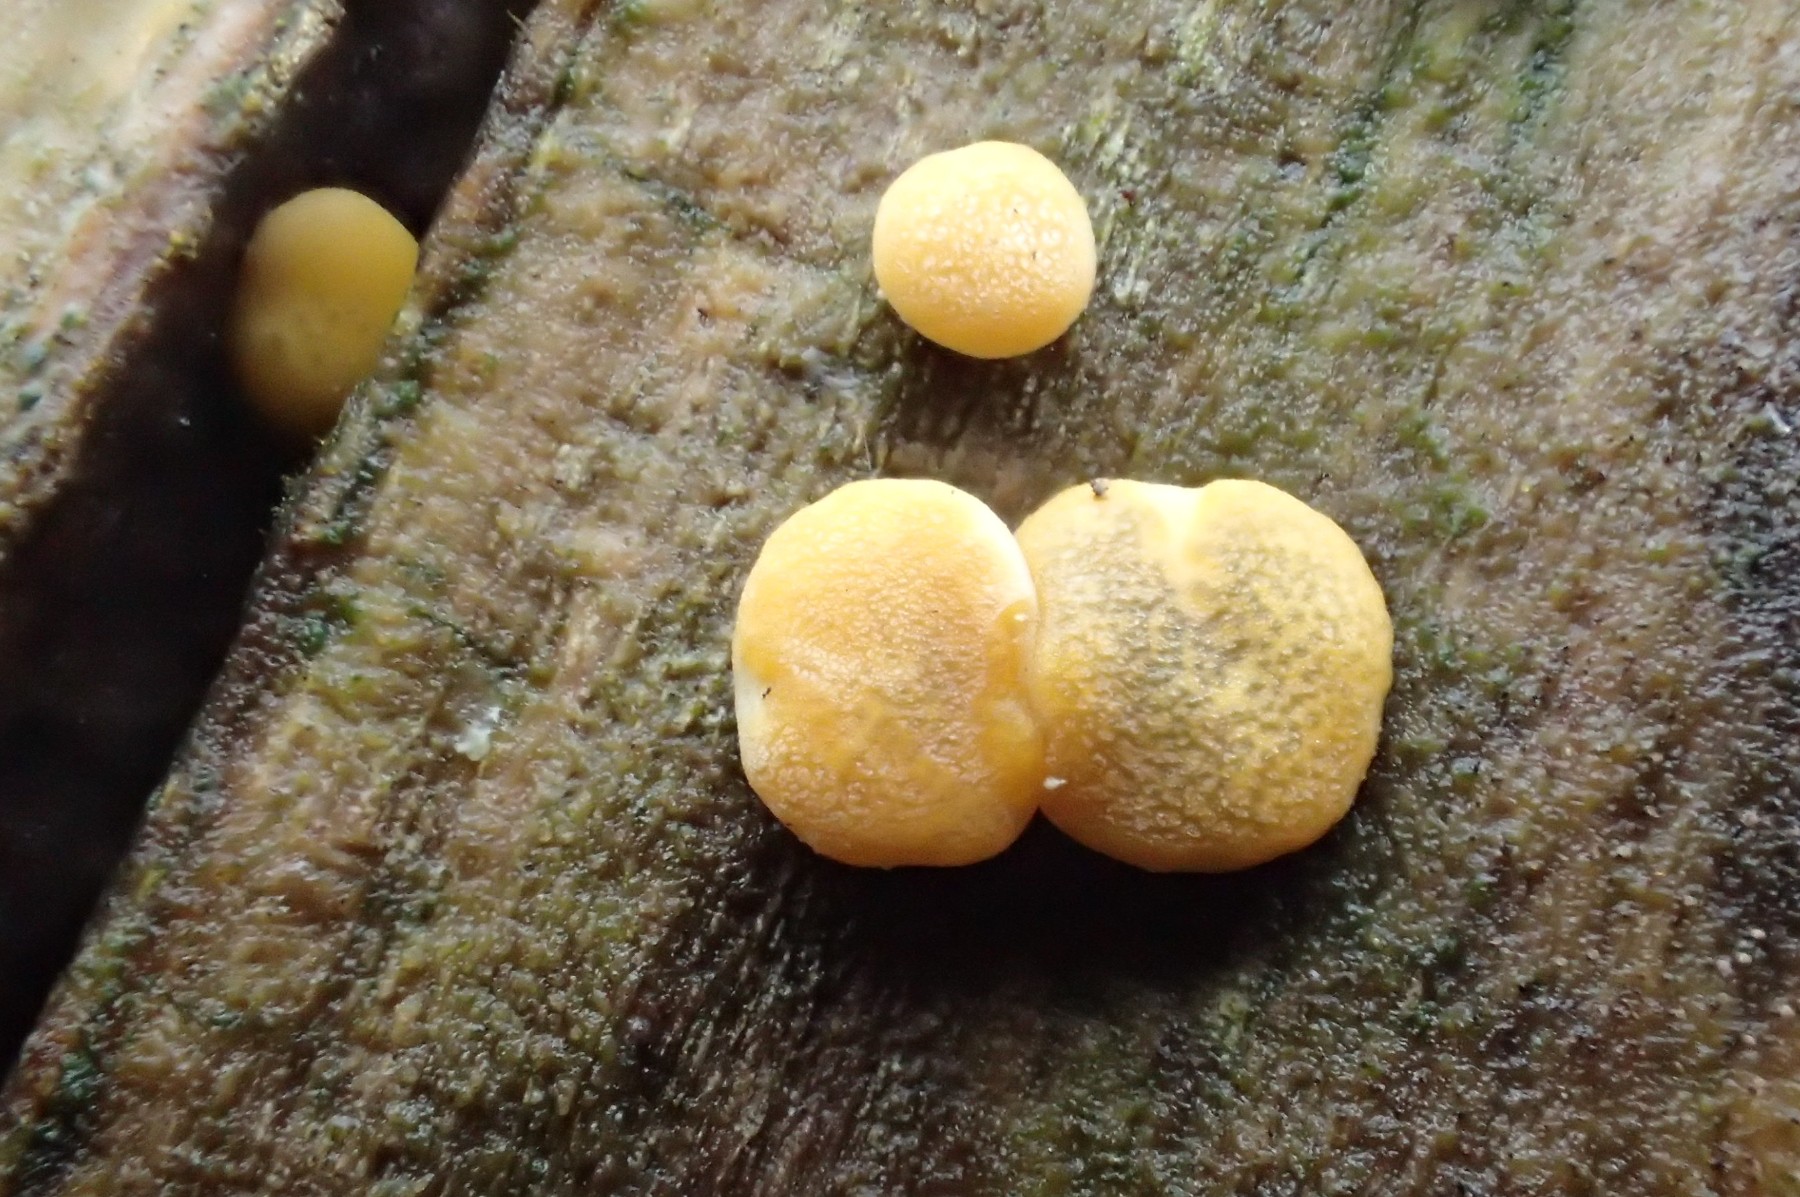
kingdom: Fungi
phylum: Ascomycota
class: Sordariomycetes
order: Hypocreales
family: Hypocreaceae
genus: Trichoderma
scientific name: Trichoderma aureoviride
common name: æggegul kødkerne
